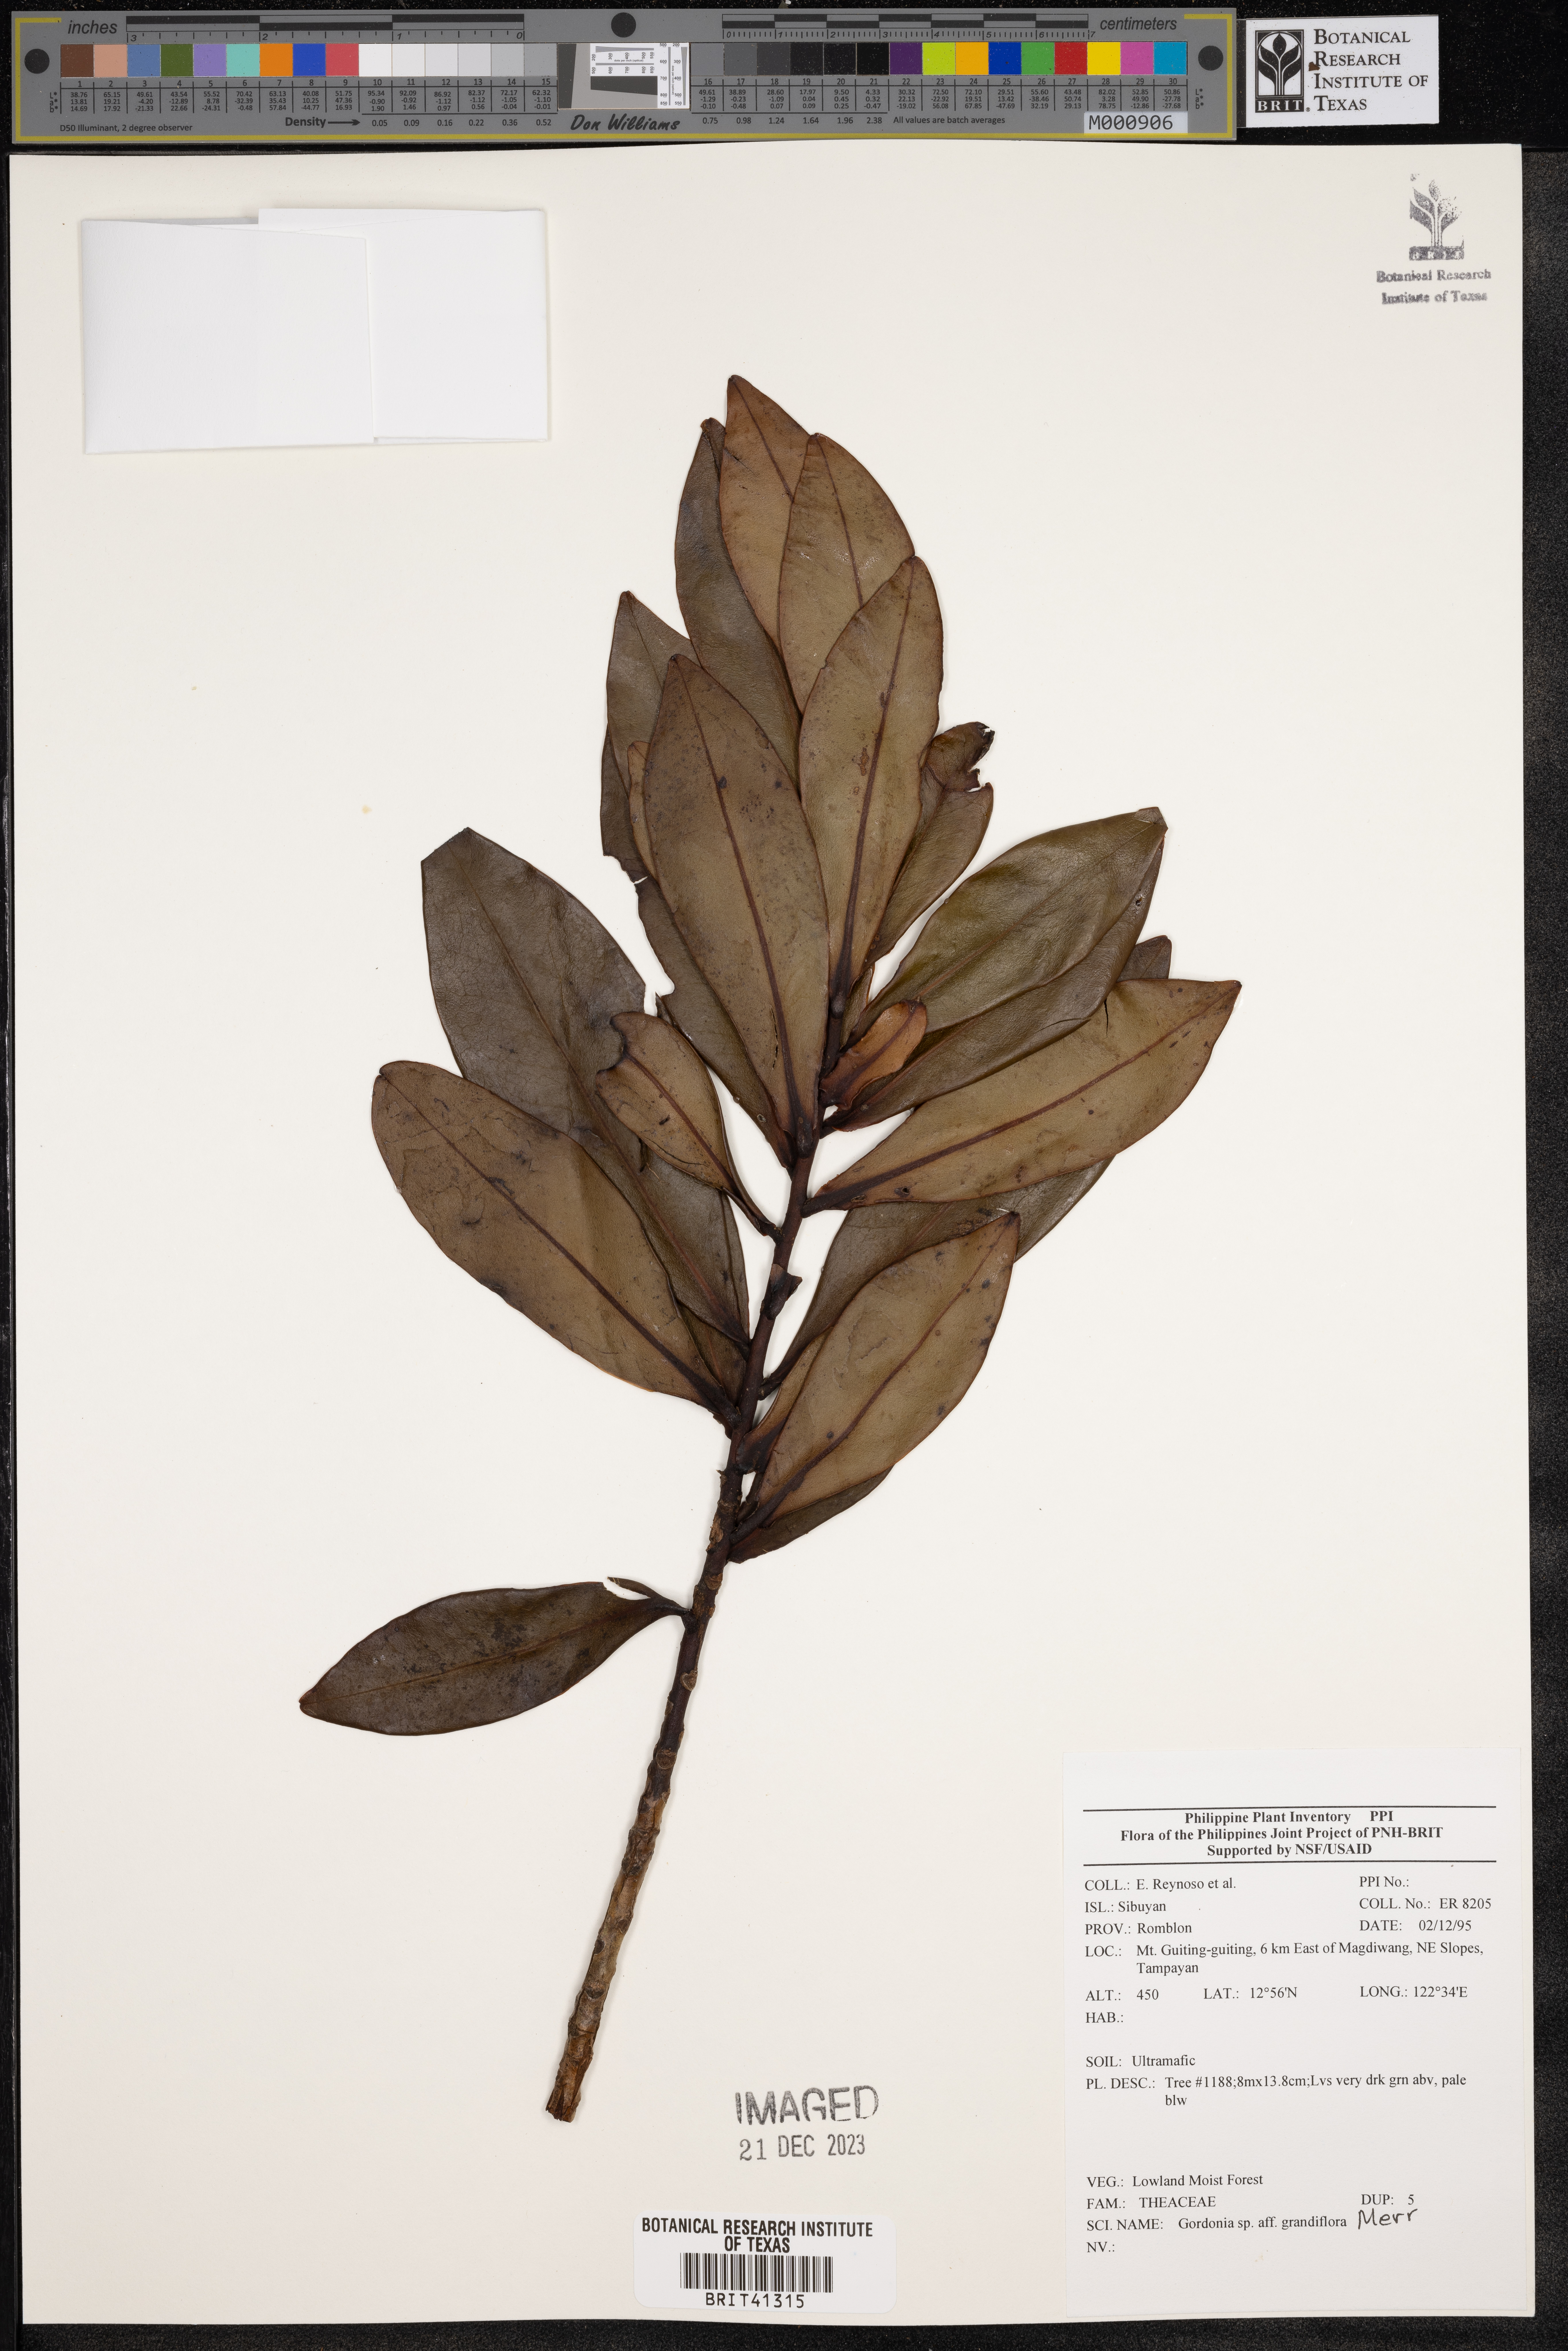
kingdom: Plantae
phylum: Tracheophyta
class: Magnoliopsida
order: Ericales
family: Theaceae
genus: Gordonia
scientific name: Gordonia
